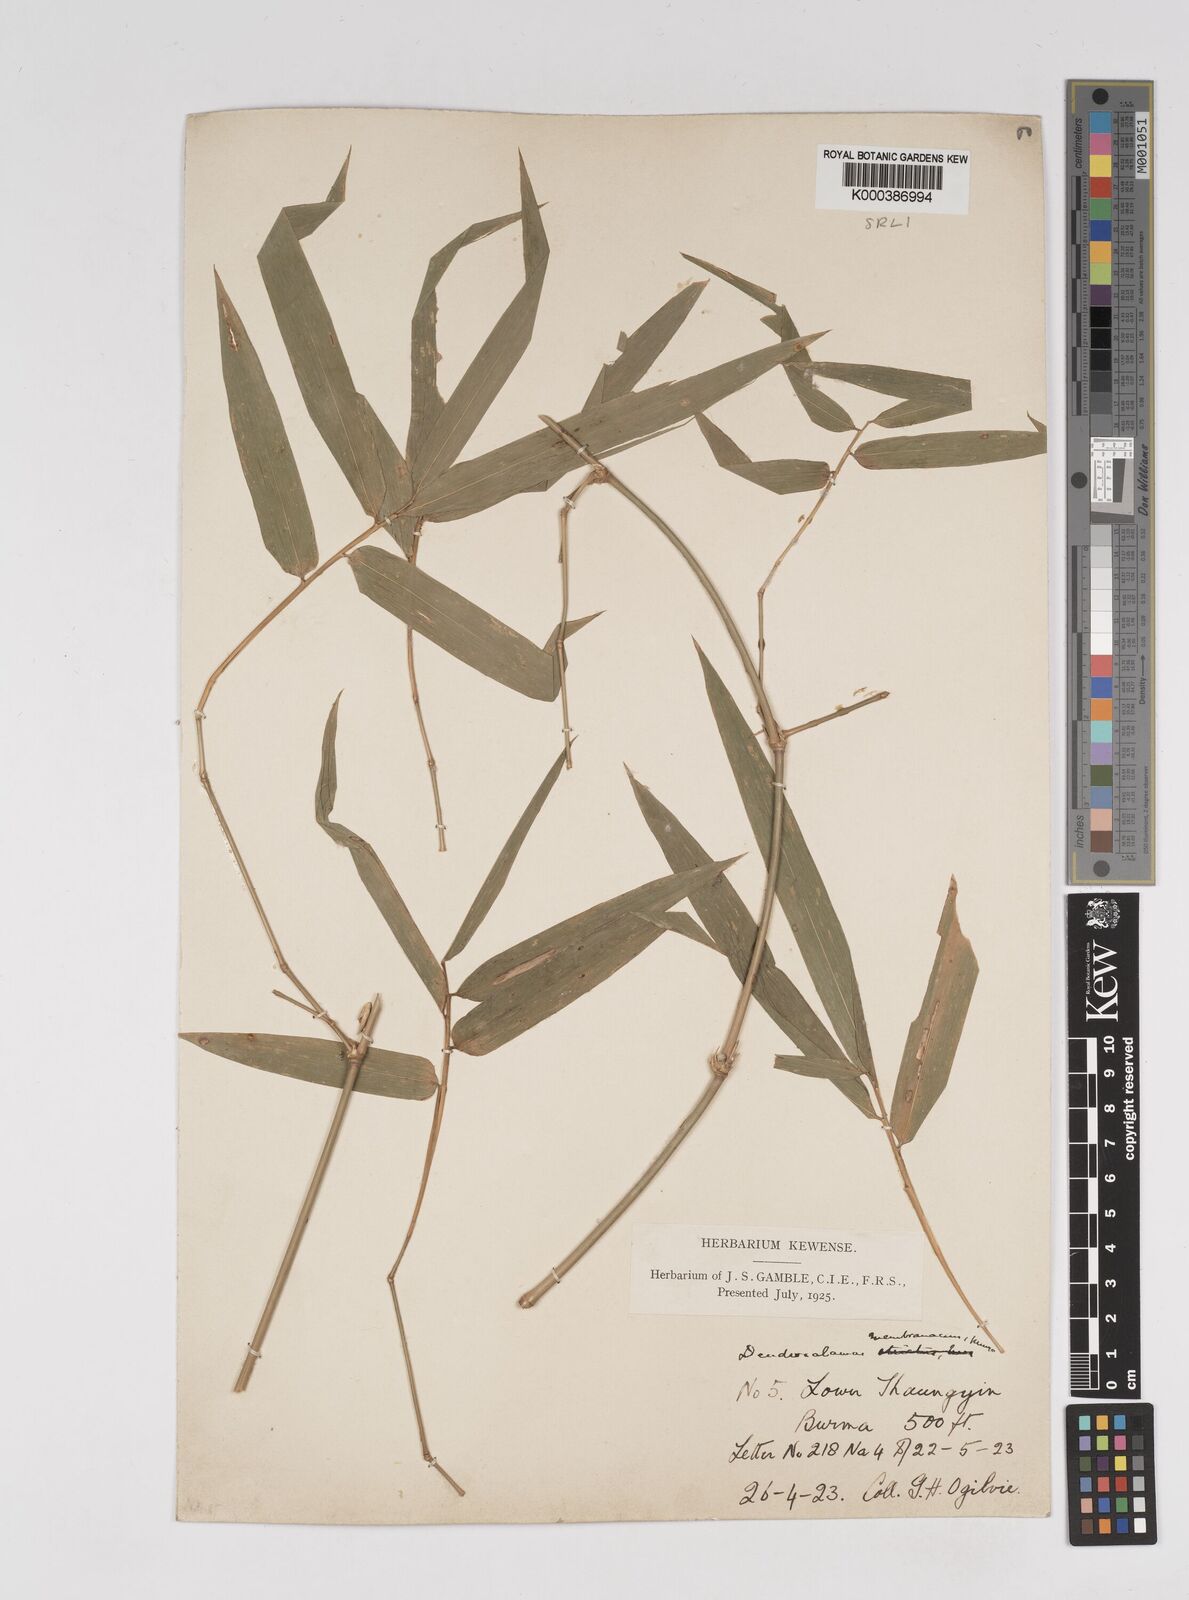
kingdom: Plantae
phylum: Tracheophyta
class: Liliopsida
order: Poales
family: Poaceae
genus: Dendrocalamus
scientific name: Dendrocalamus membranaceus
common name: White bamboo
